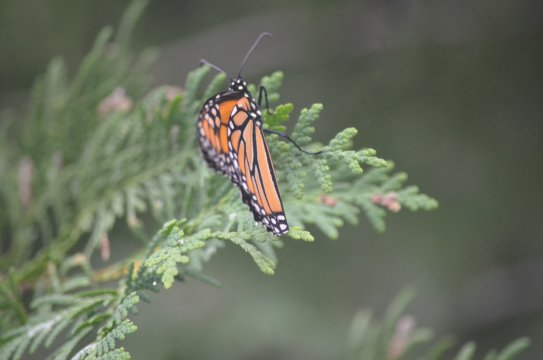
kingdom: Animalia
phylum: Arthropoda
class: Insecta
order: Lepidoptera
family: Nymphalidae
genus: Danaus
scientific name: Danaus plexippus
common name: Monarch
